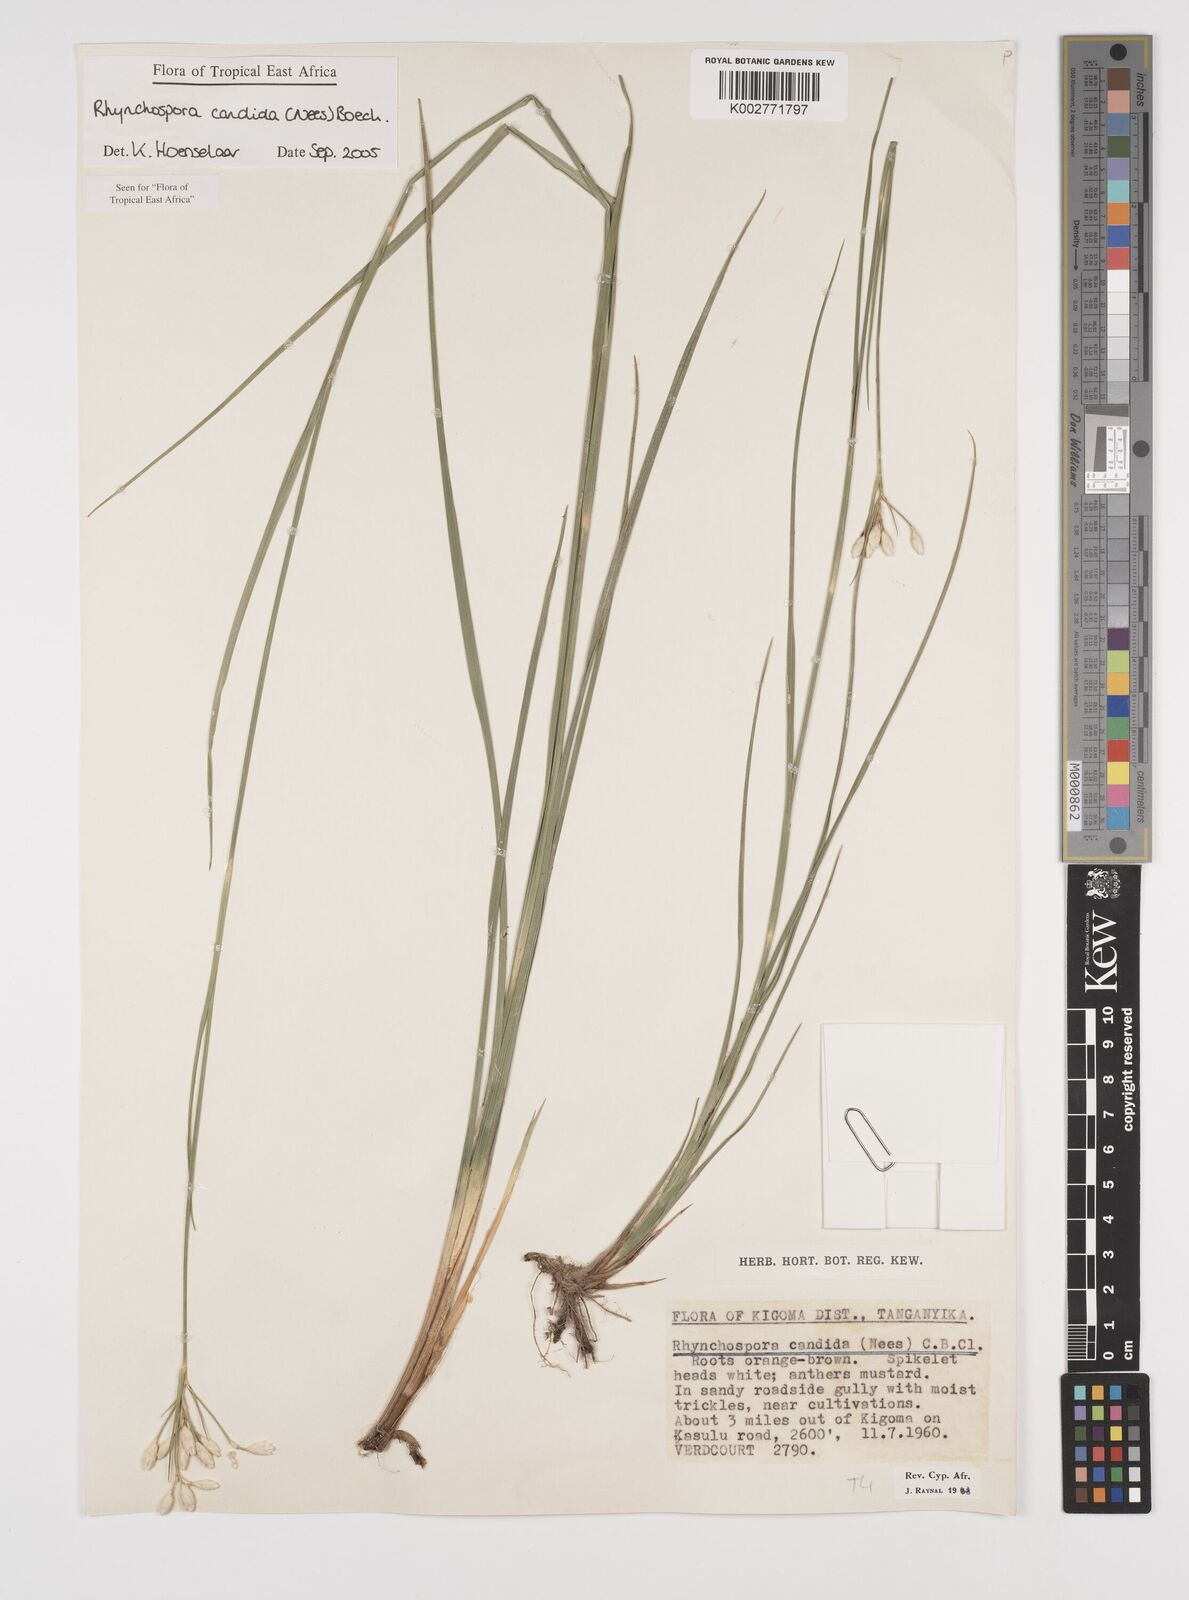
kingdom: Plantae
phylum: Tracheophyta
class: Liliopsida
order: Poales
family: Cyperaceae
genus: Rhynchospora
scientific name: Rhynchospora candida
